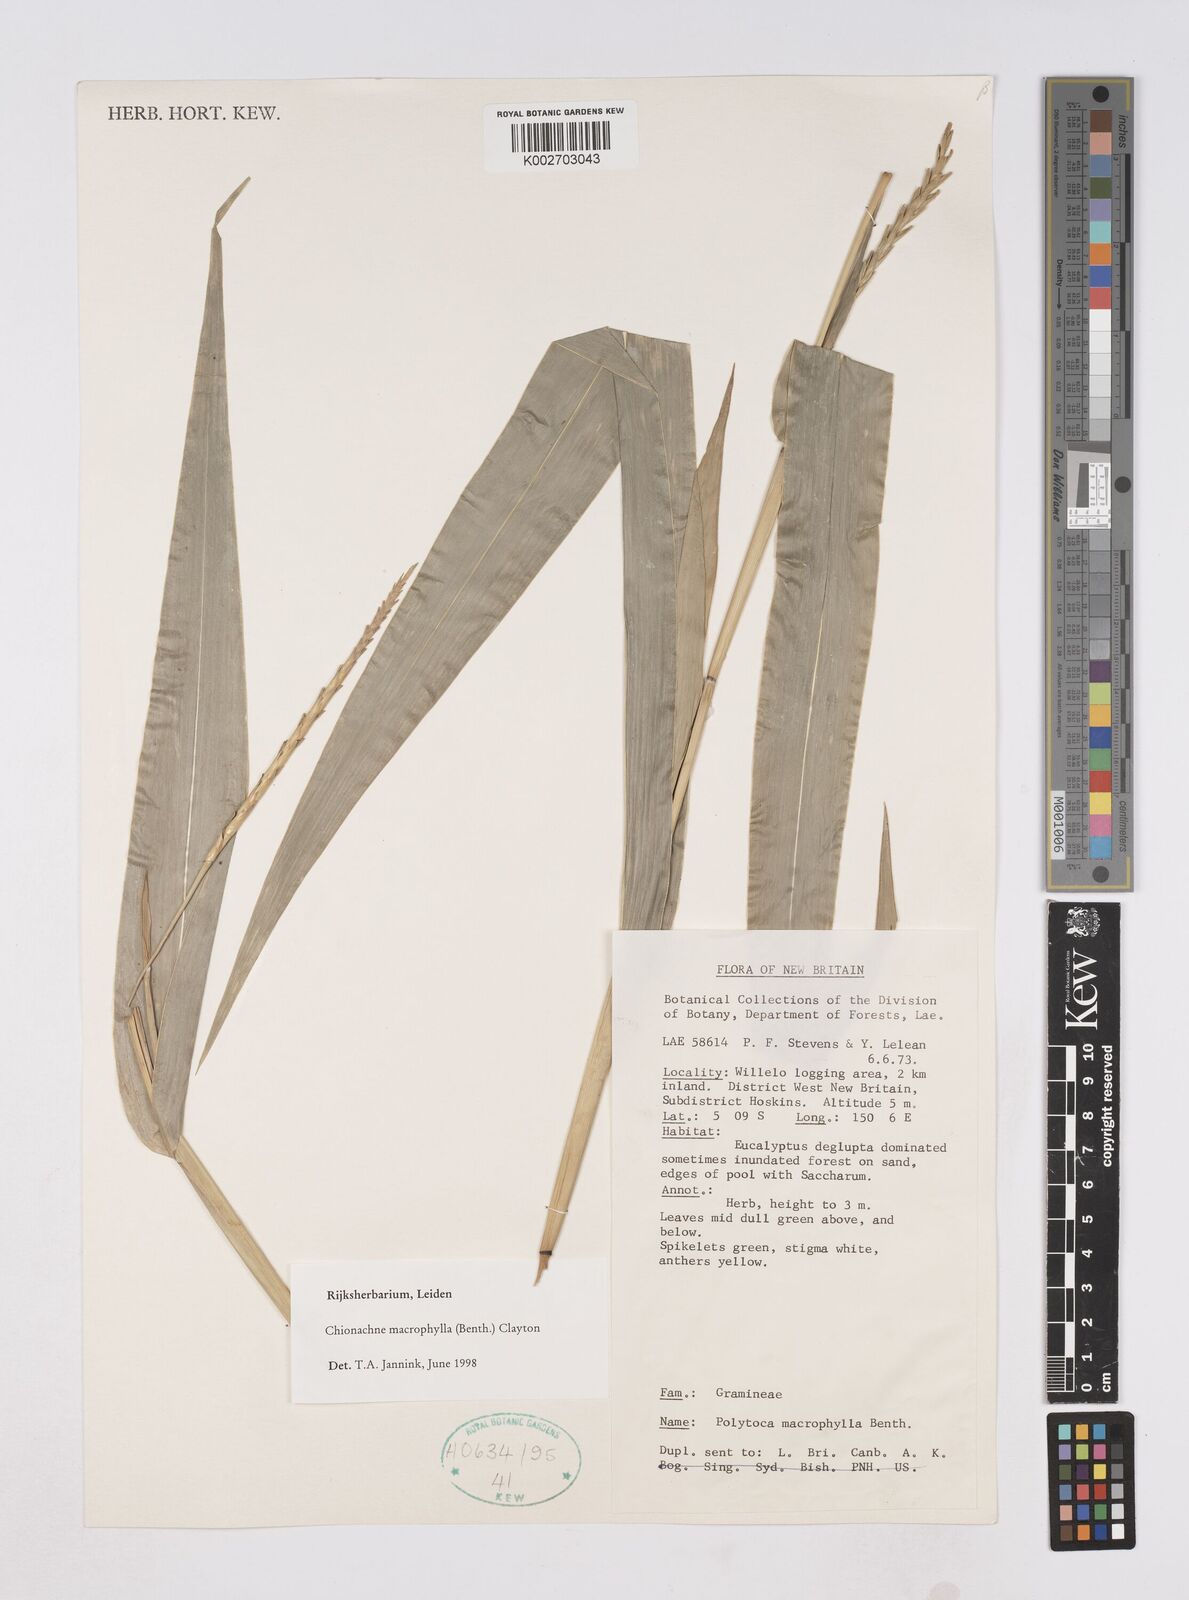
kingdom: Plantae
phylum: Tracheophyta
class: Liliopsida
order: Poales
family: Poaceae
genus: Polytoca
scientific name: Polytoca macrophylla
